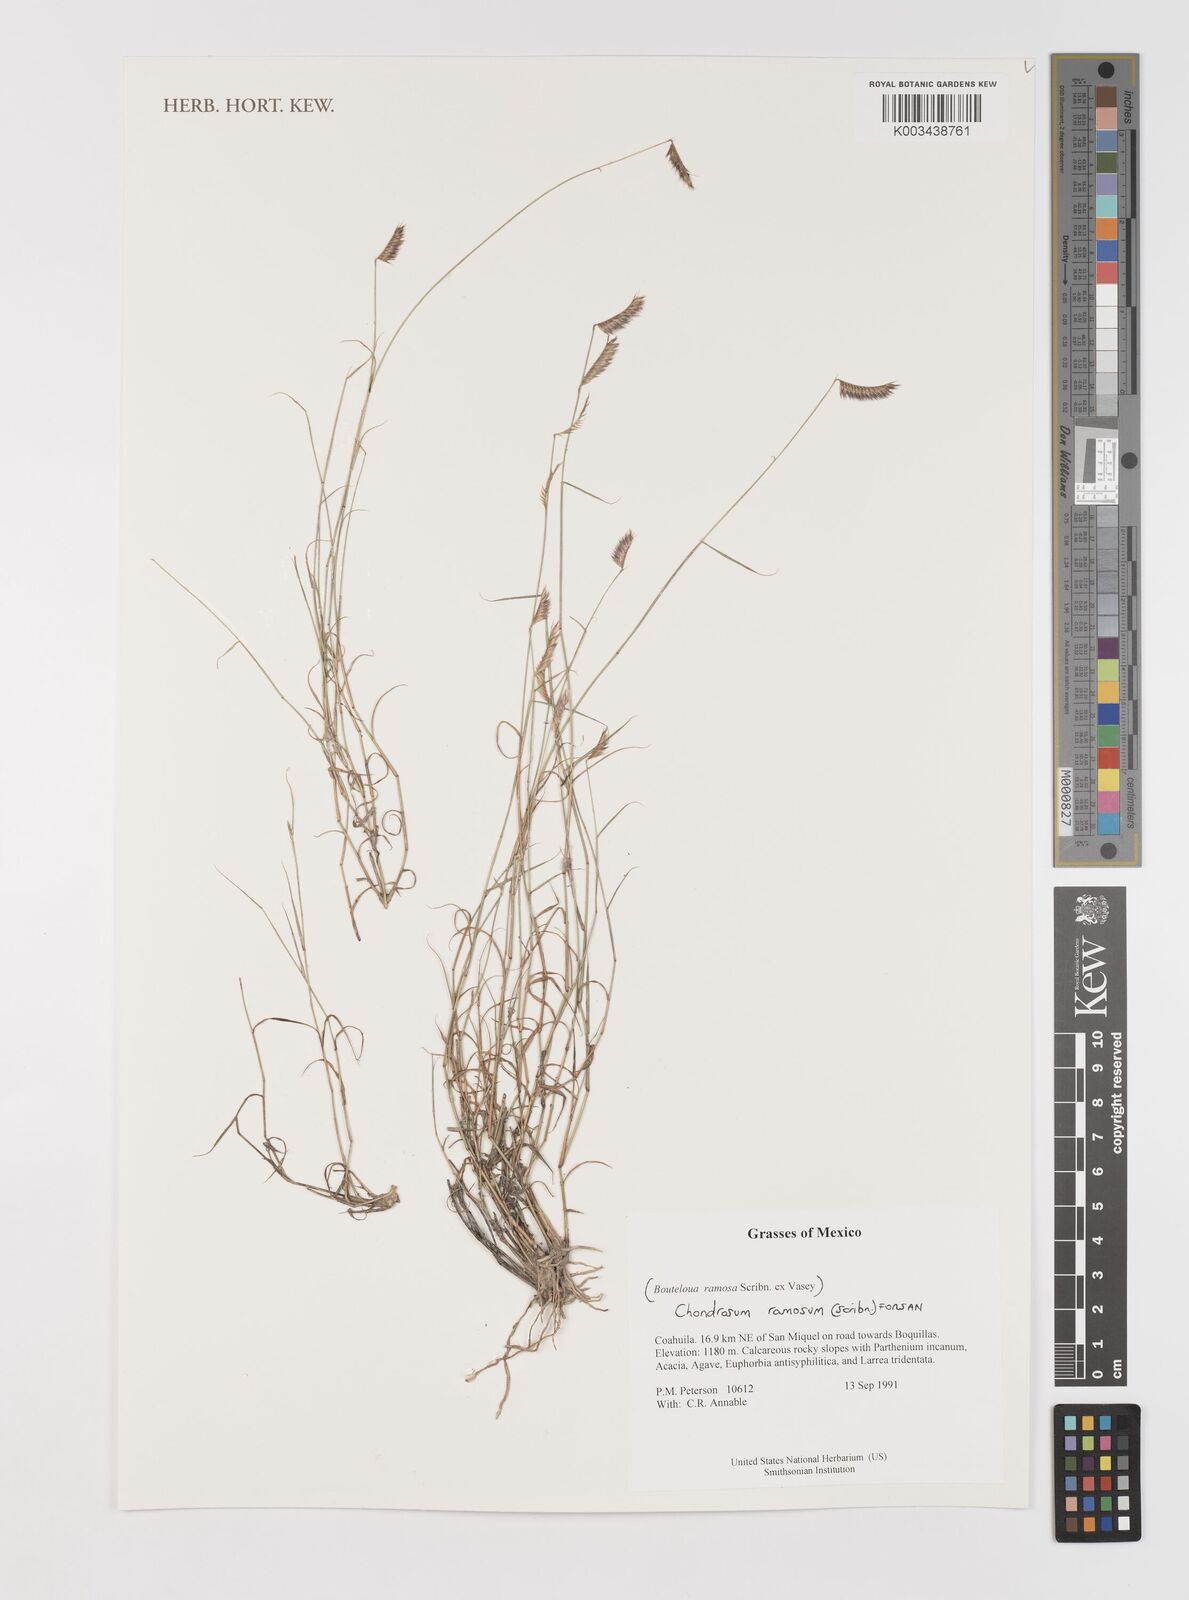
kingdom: Plantae
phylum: Tracheophyta
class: Liliopsida
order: Poales
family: Poaceae
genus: Bouteloua
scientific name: Bouteloua ramosa
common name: Chino grama
